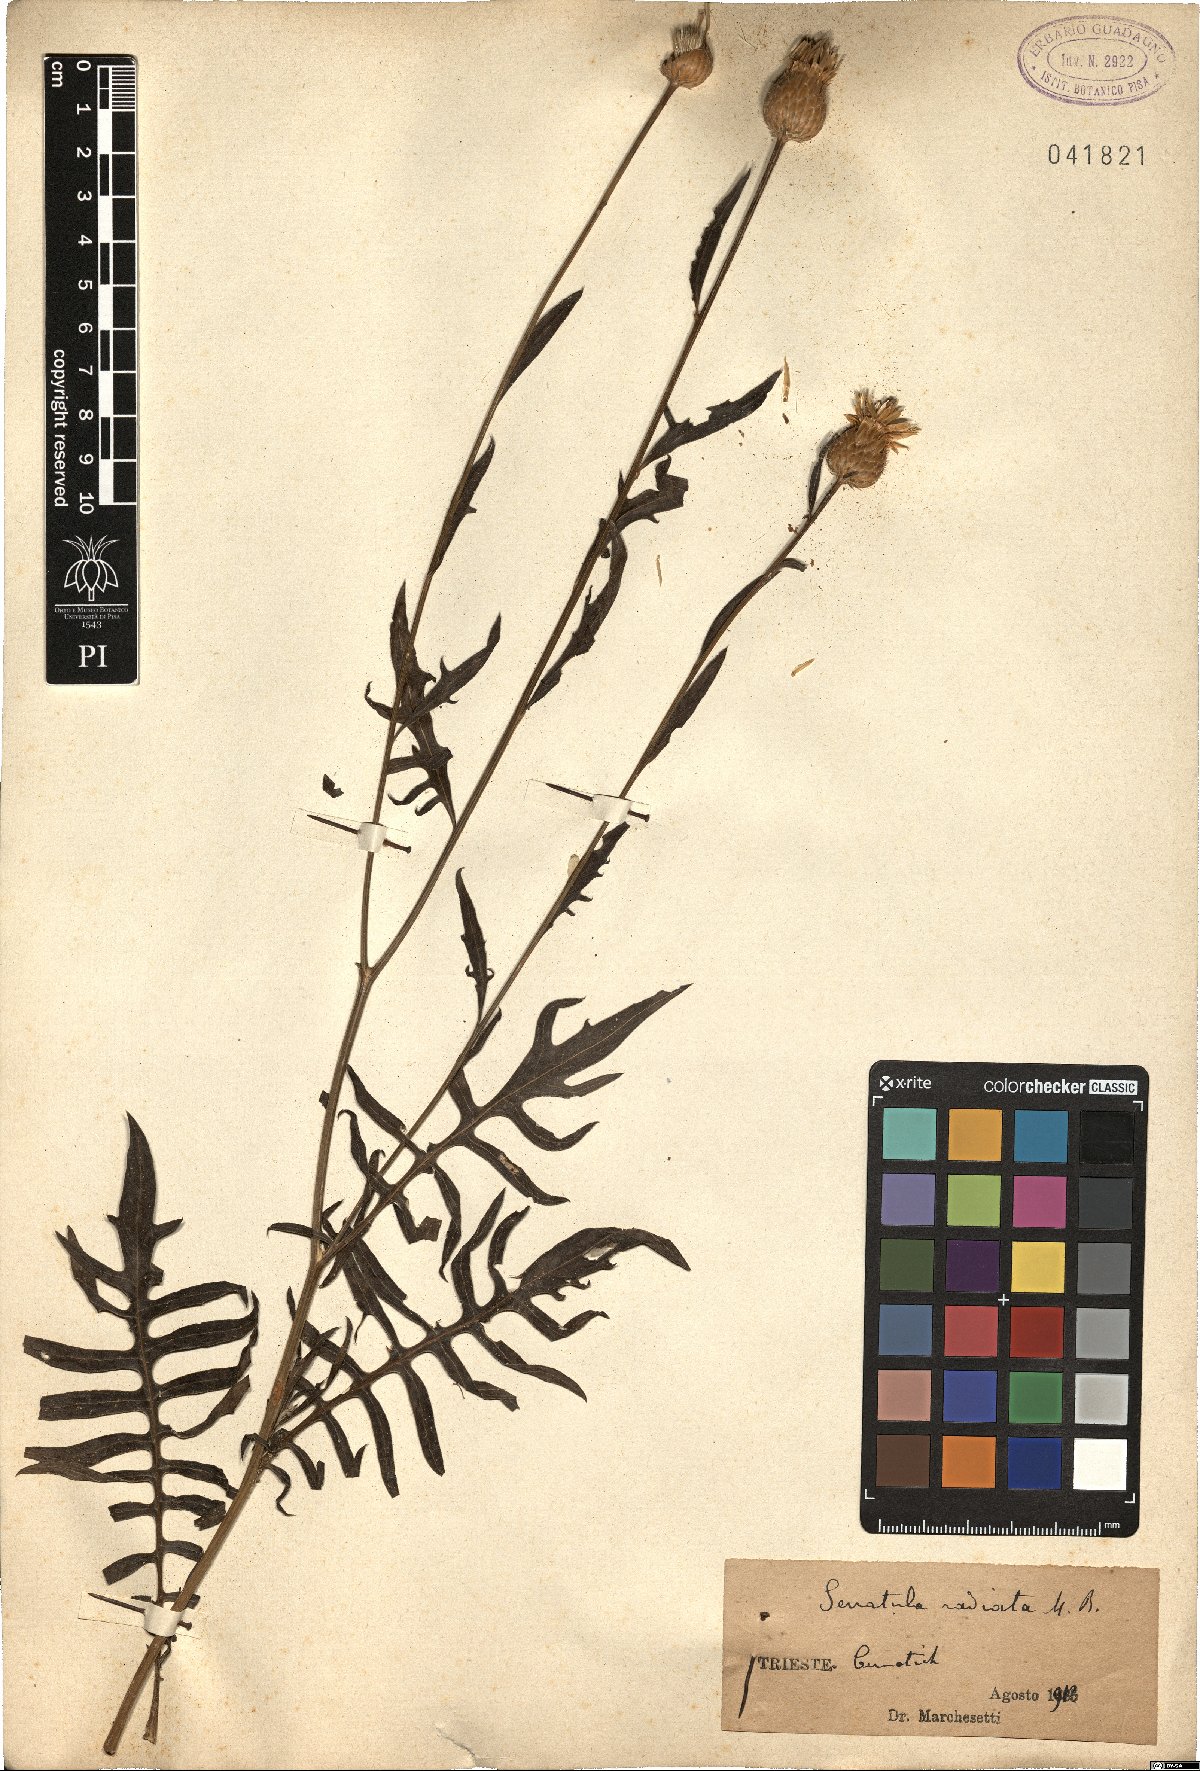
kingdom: Plantae
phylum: Tracheophyta
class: Magnoliopsida
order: Asterales
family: Asteraceae
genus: Klasea
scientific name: Klasea radiata
